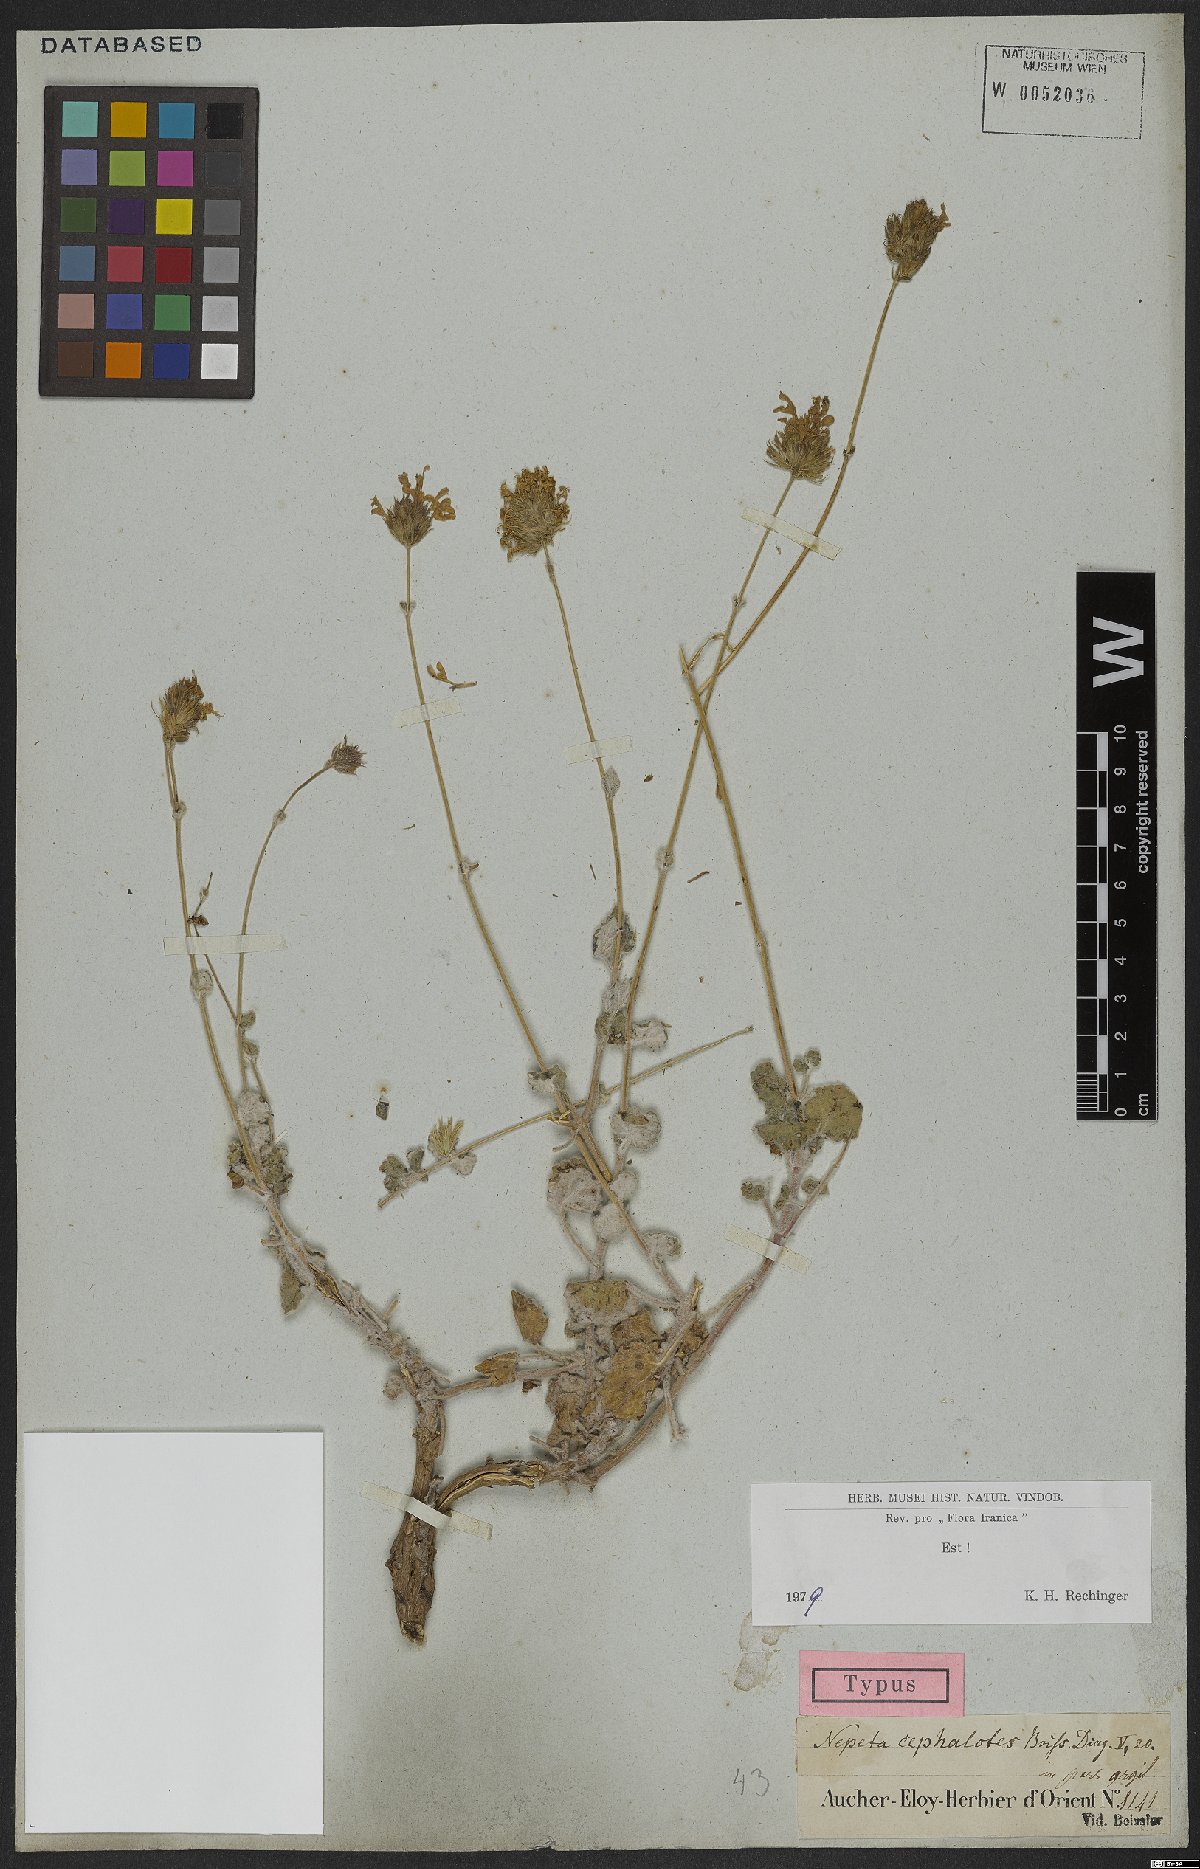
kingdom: Plantae
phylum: Tracheophyta
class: Magnoliopsida
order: Lamiales
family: Lamiaceae
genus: Nepeta
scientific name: Nepeta cephalotes
